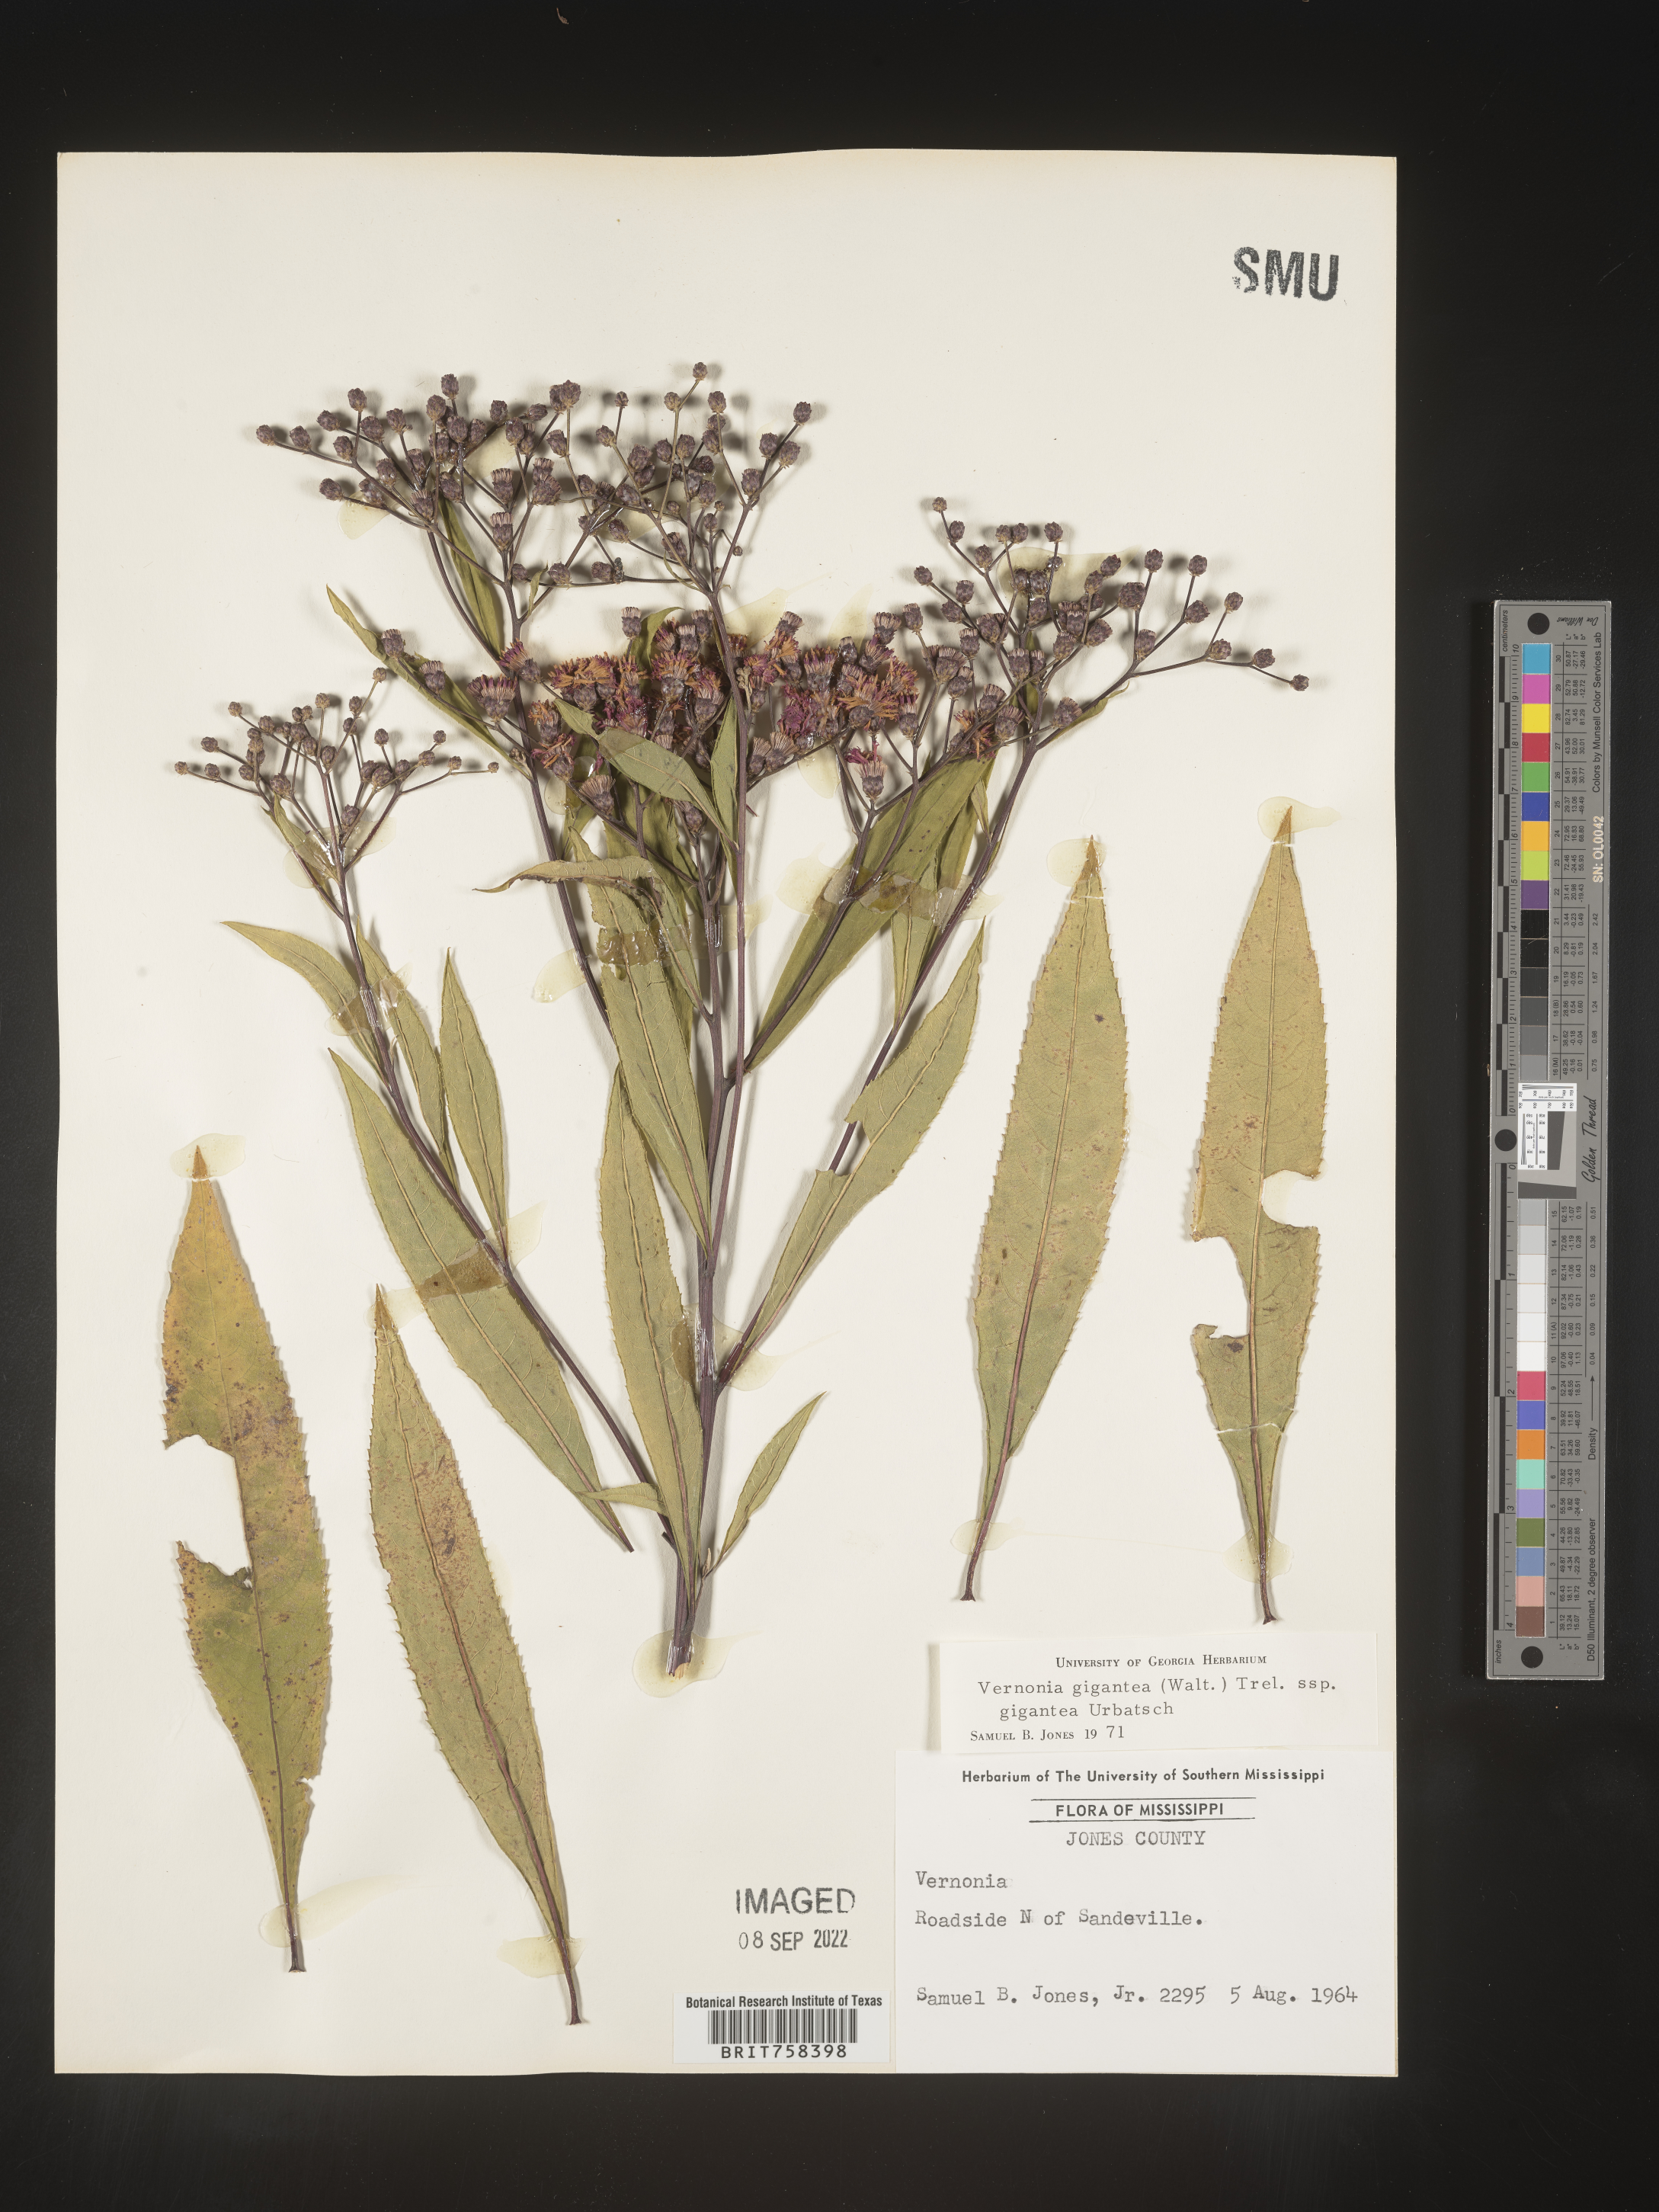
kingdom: Plantae
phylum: Tracheophyta
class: Magnoliopsida
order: Asterales
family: Asteraceae
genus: Vernonia
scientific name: Vernonia gigantea
